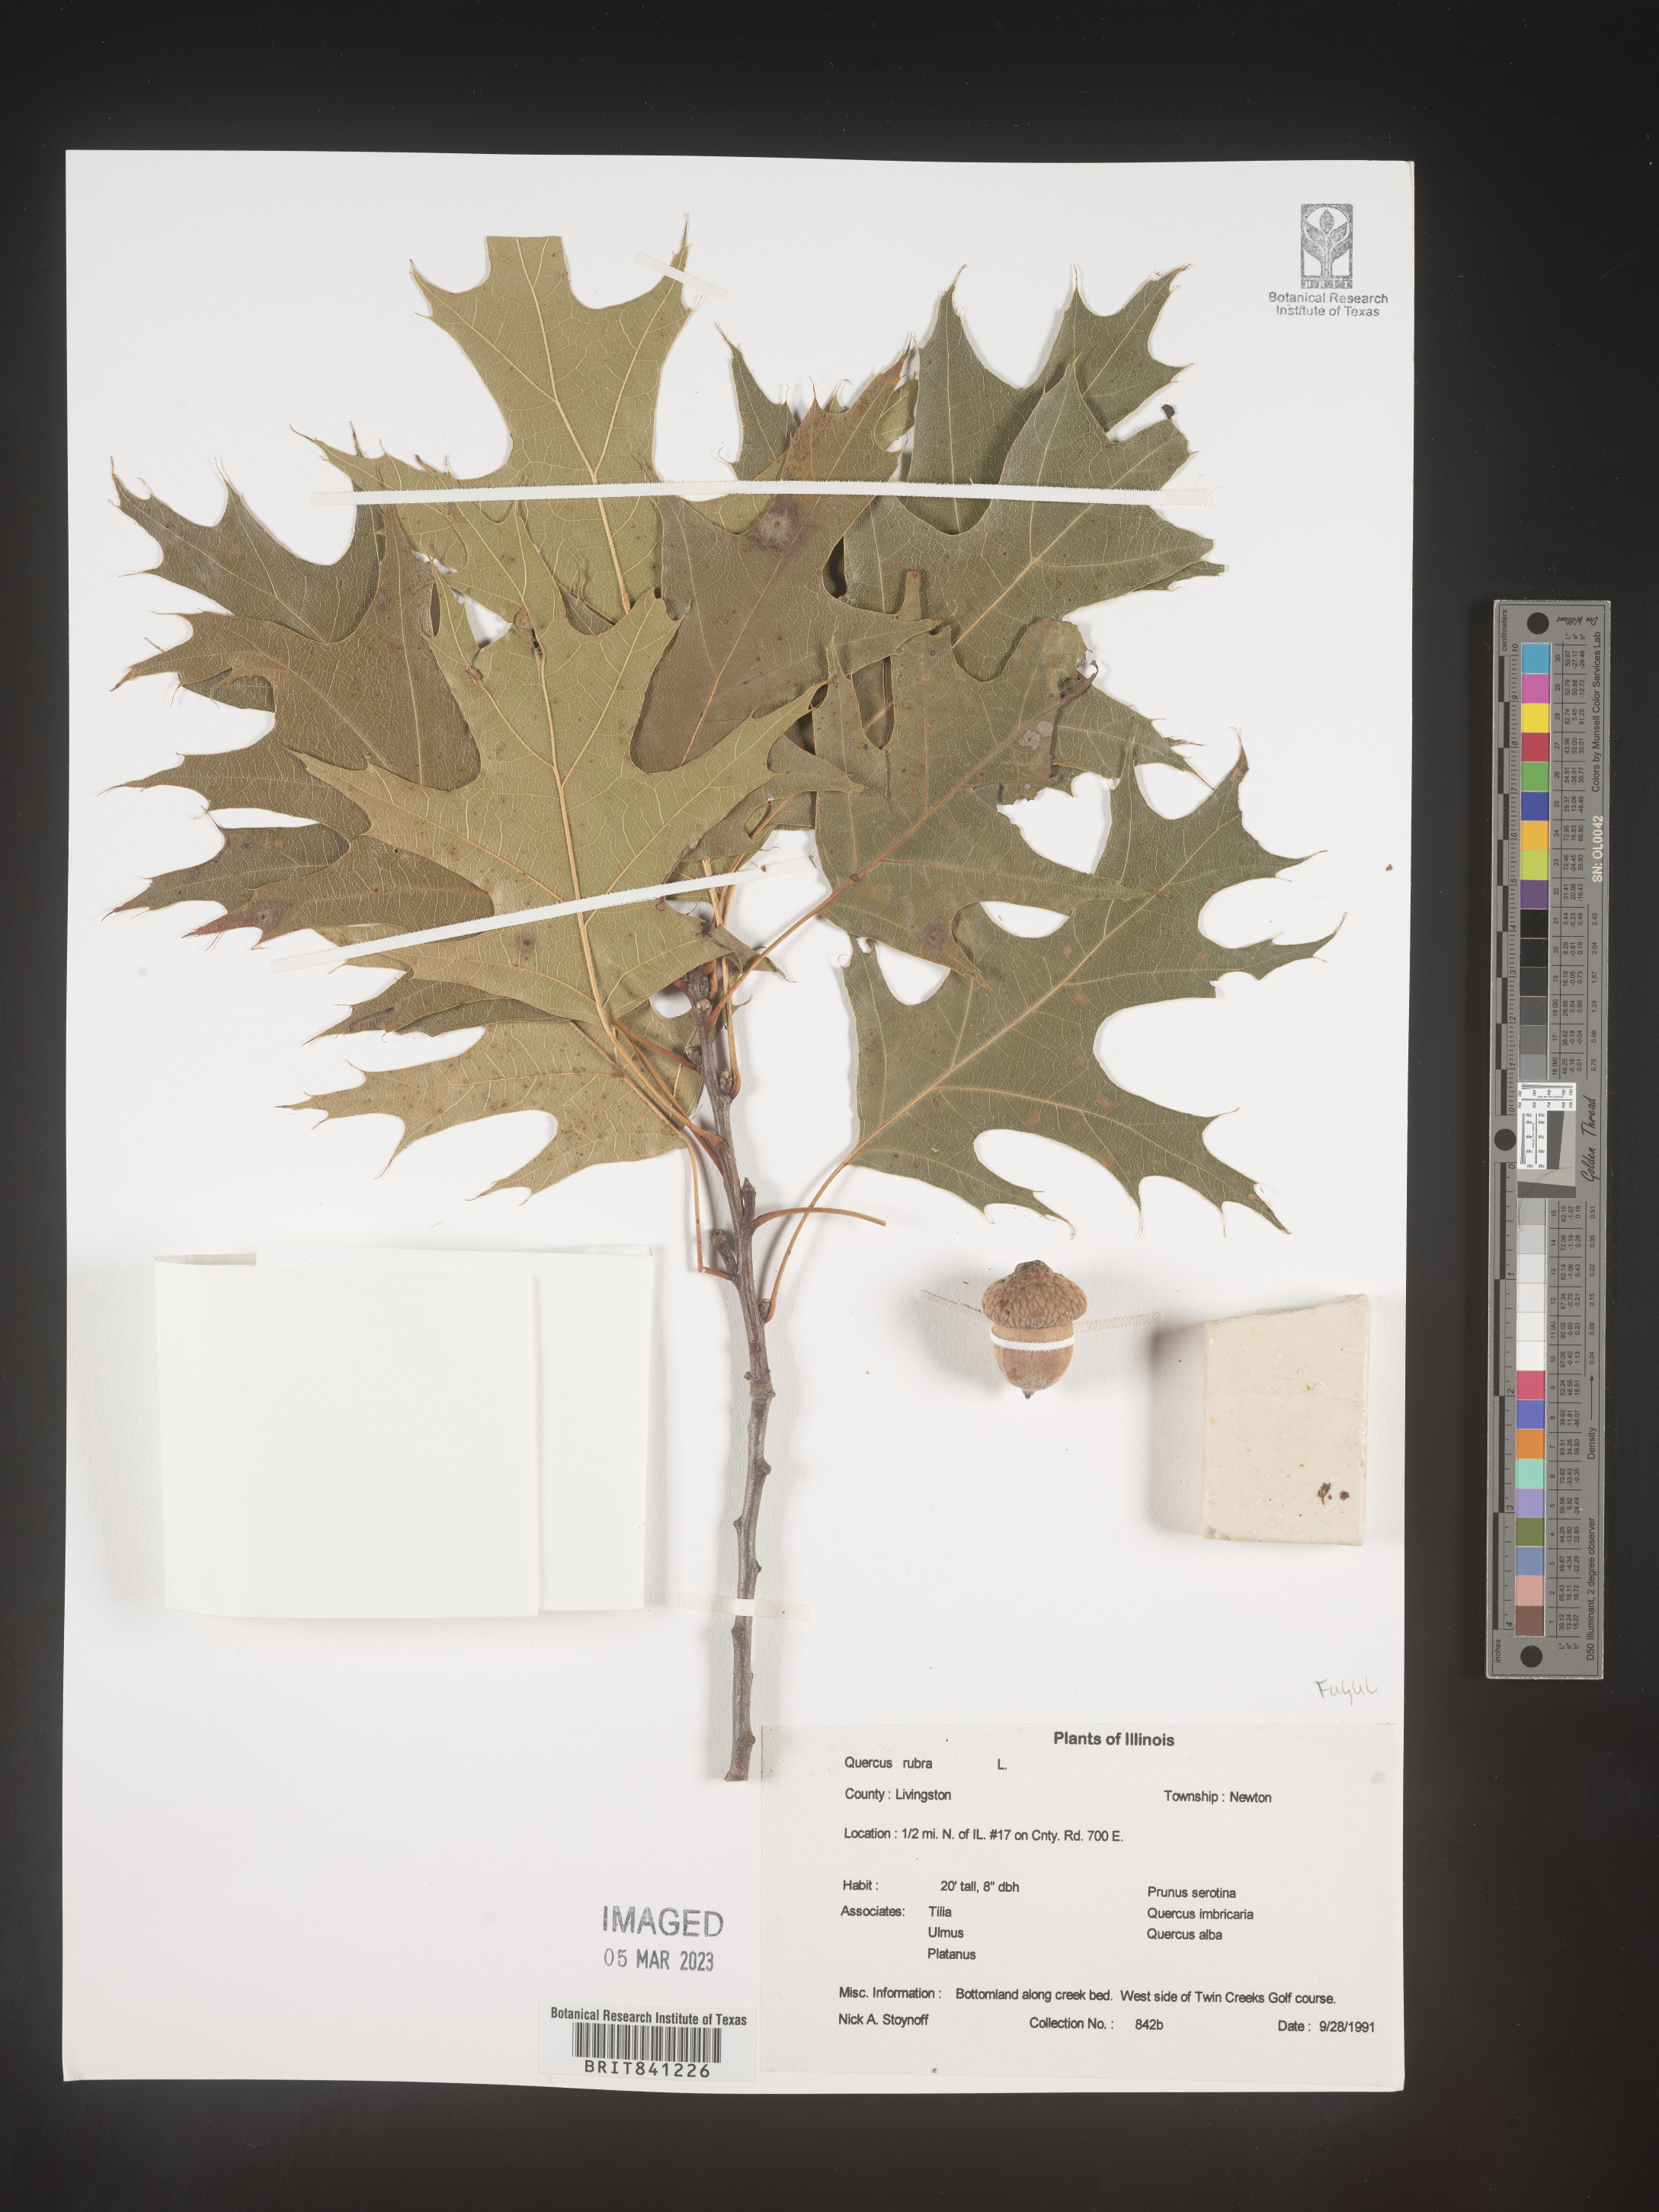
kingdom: Plantae
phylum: Tracheophyta
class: Magnoliopsida
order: Fagales
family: Fagaceae
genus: Quercus
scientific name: Quercus rubra
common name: Red oak
